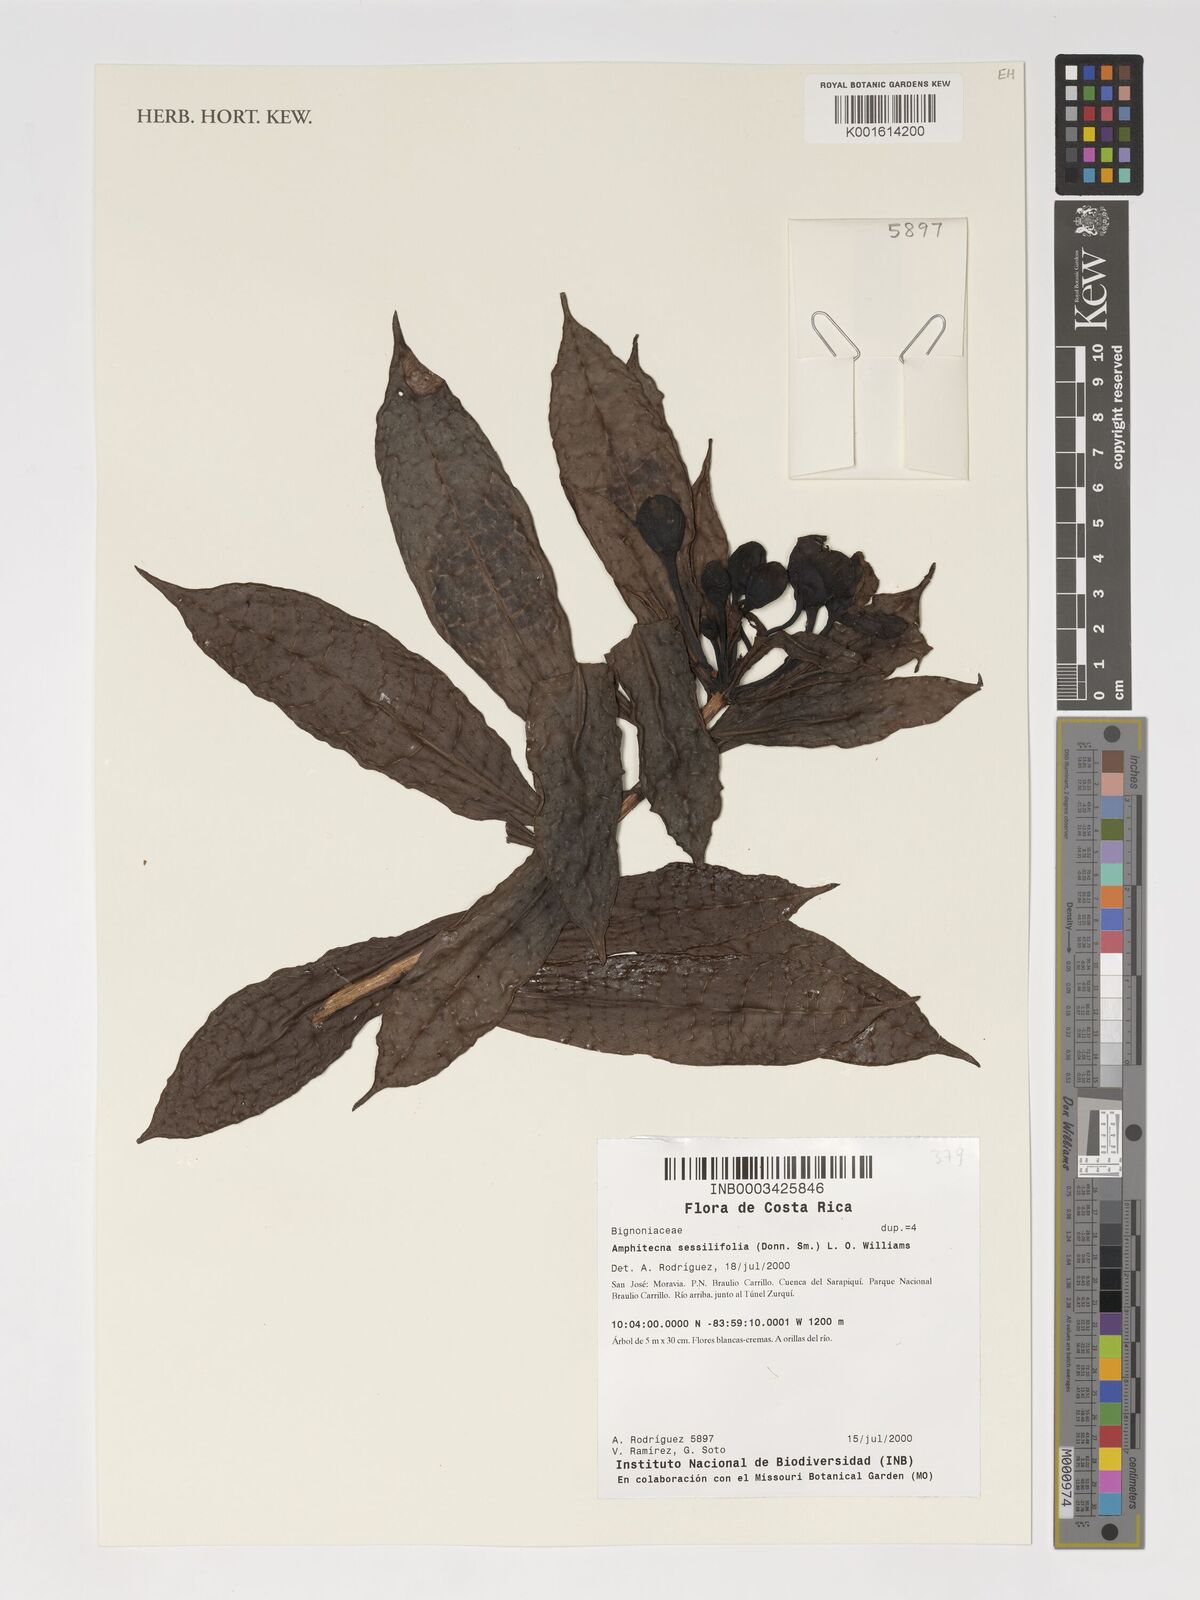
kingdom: Plantae
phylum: Tracheophyta
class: Magnoliopsida
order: Lamiales
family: Bignoniaceae
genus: Amphitecna
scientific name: Amphitecna sessilifolia
